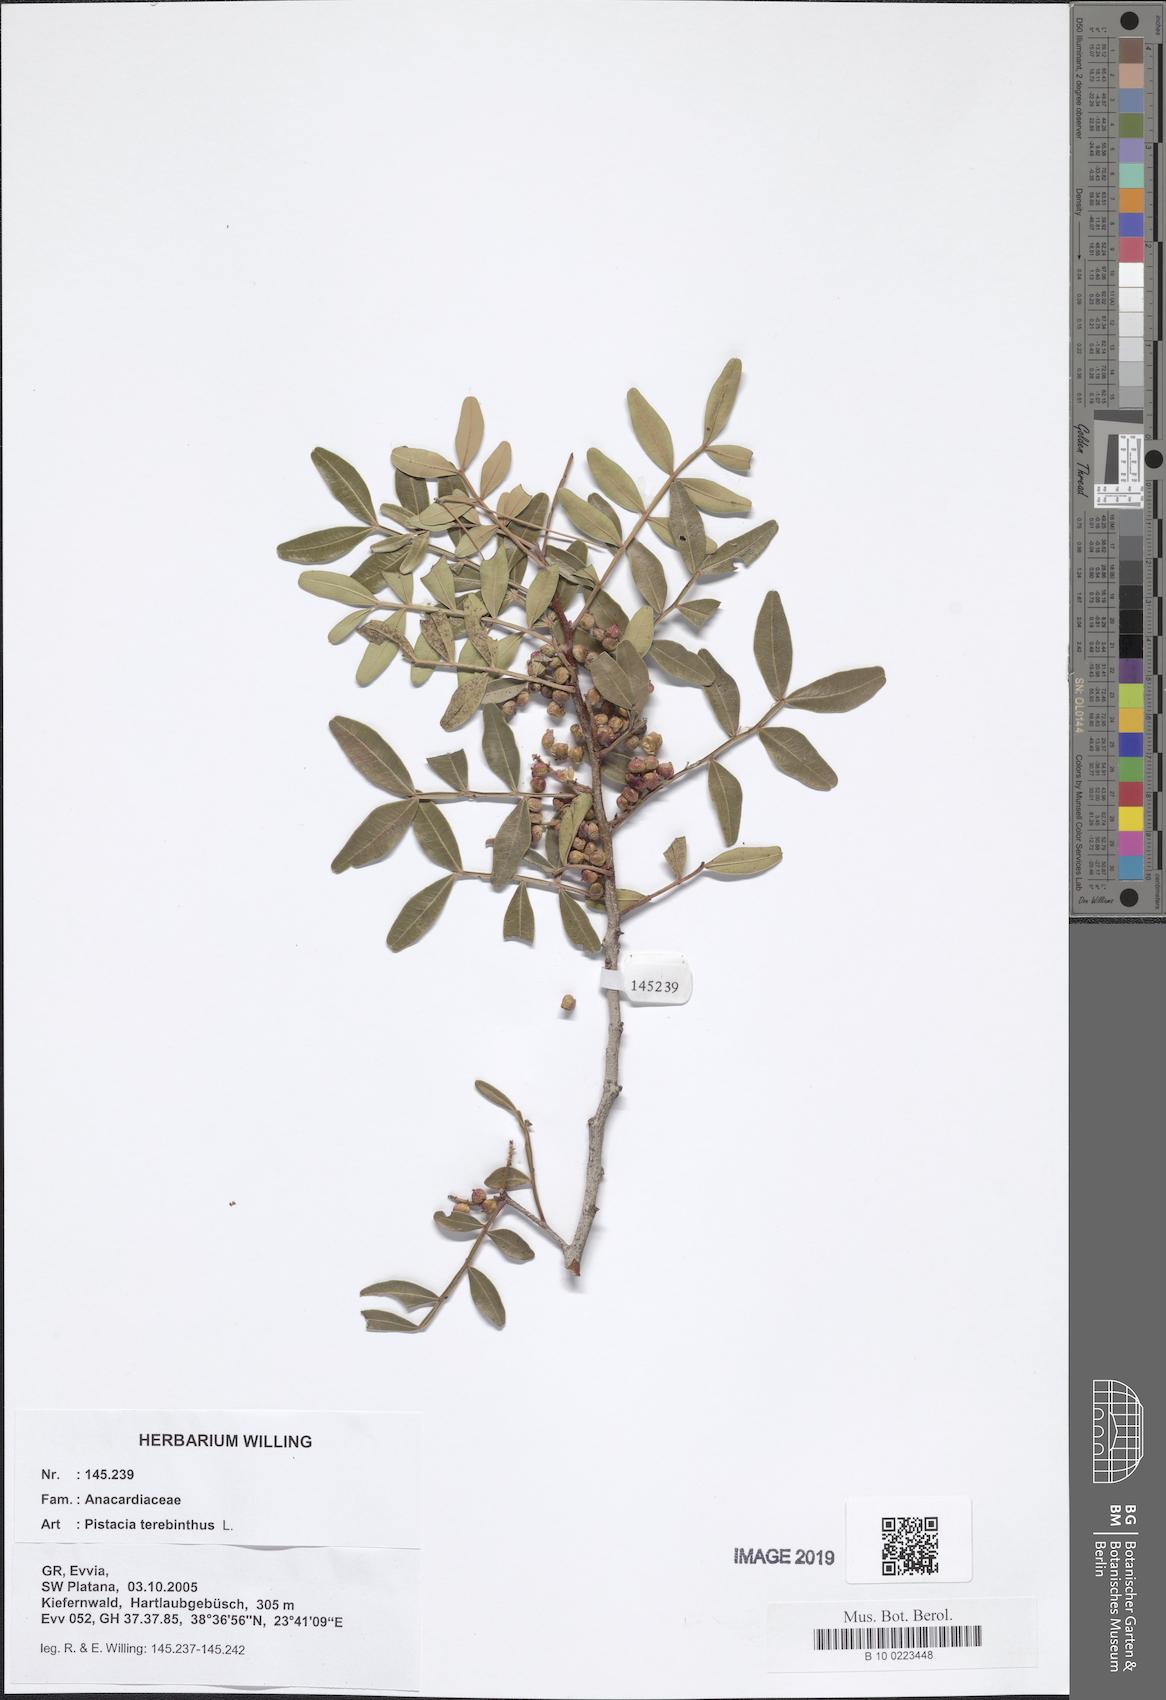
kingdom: Plantae
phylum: Tracheophyta
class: Magnoliopsida
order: Sapindales
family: Anacardiaceae
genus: Pistacia
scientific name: Pistacia terebinthus
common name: Terebinth
